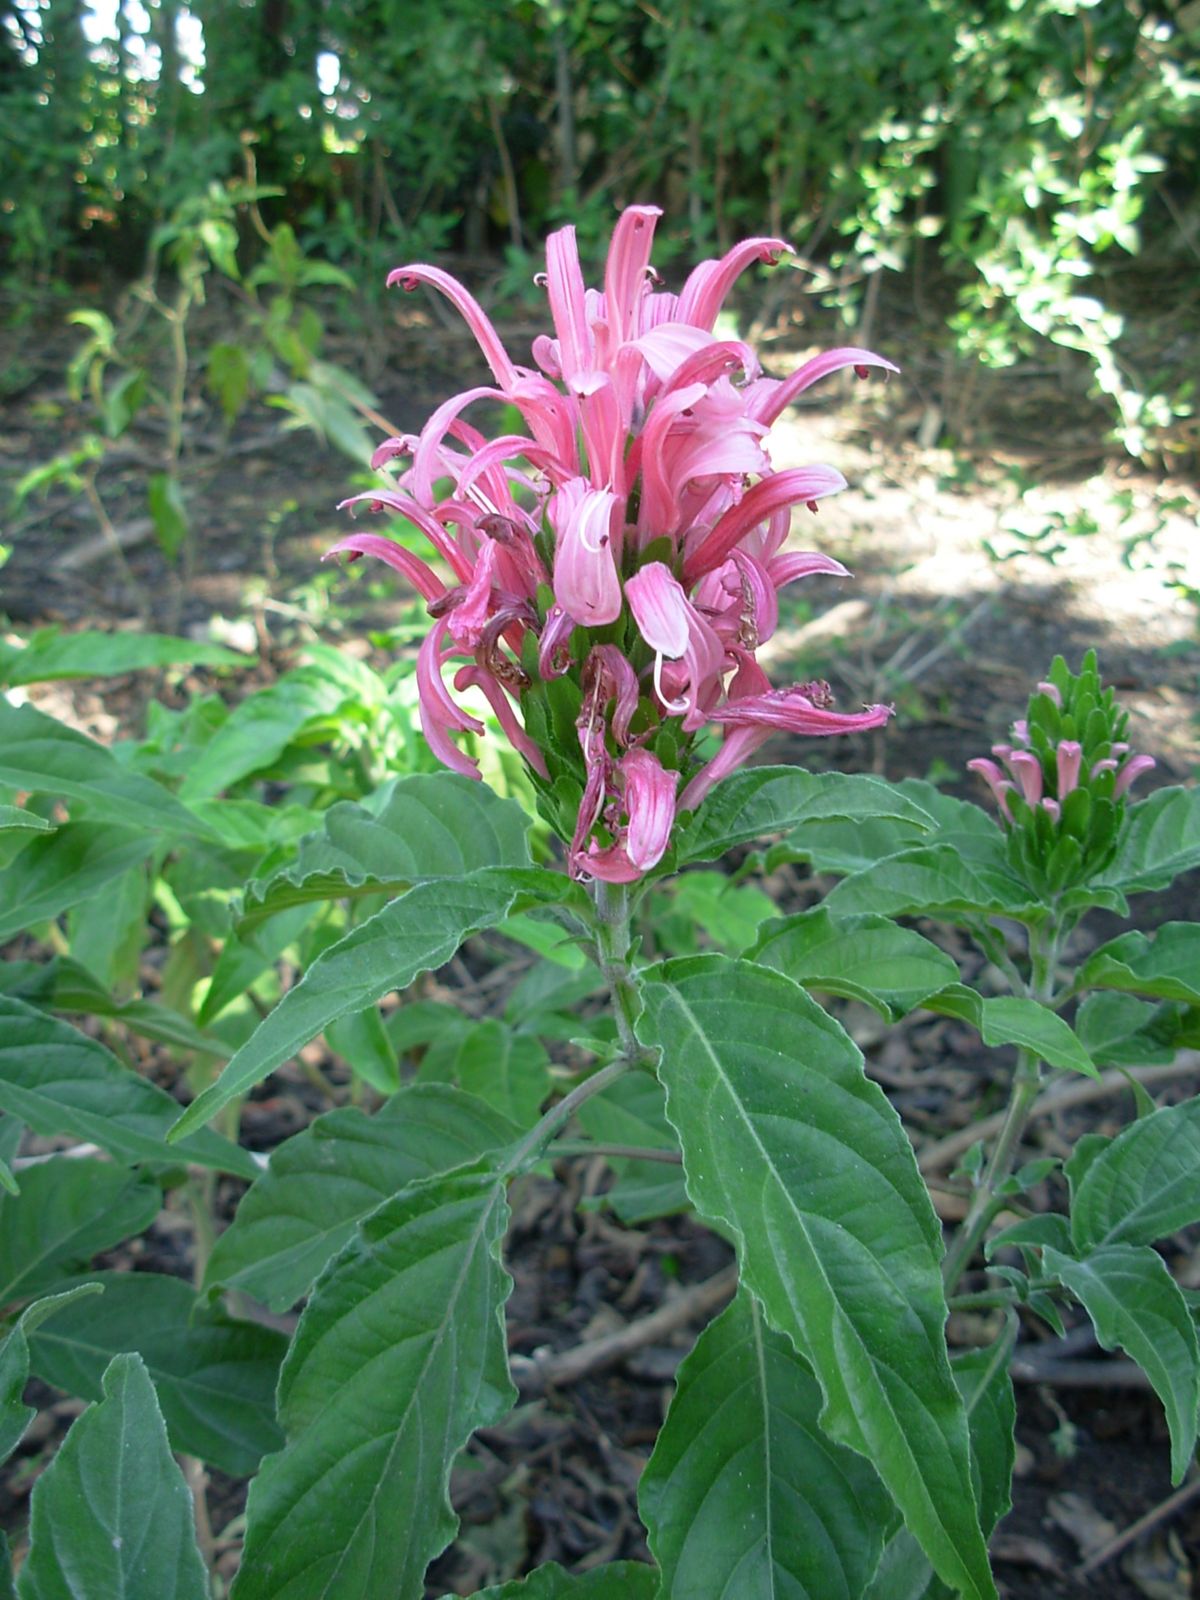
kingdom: Plantae
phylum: Tracheophyta
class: Magnoliopsida
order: Lamiales
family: Acanthaceae
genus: Justicia
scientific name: Justicia carnea
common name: Brazilian-plume
